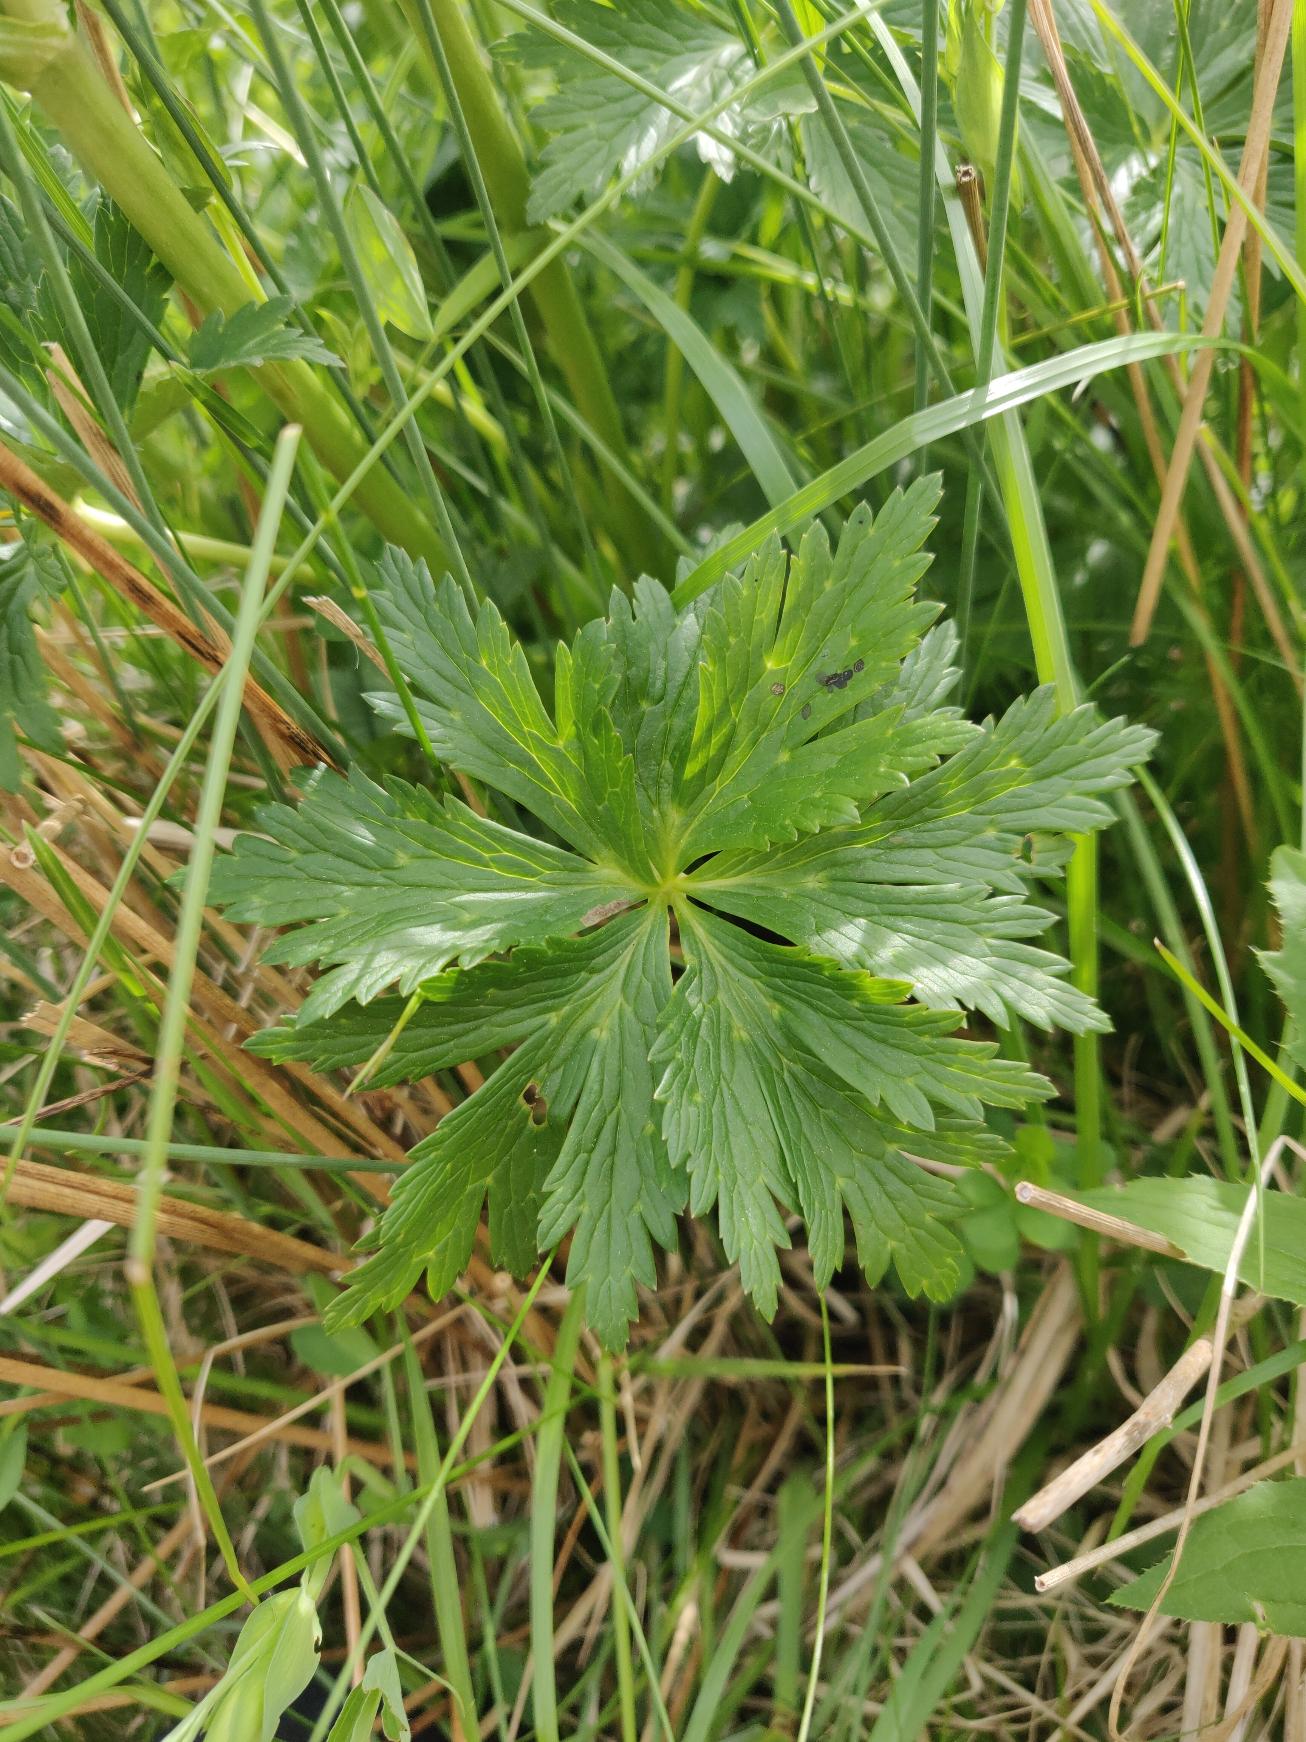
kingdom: Plantae
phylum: Tracheophyta
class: Magnoliopsida
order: Ranunculales
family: Ranunculaceae
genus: Trollius
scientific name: Trollius europaeus
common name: Engblomme
